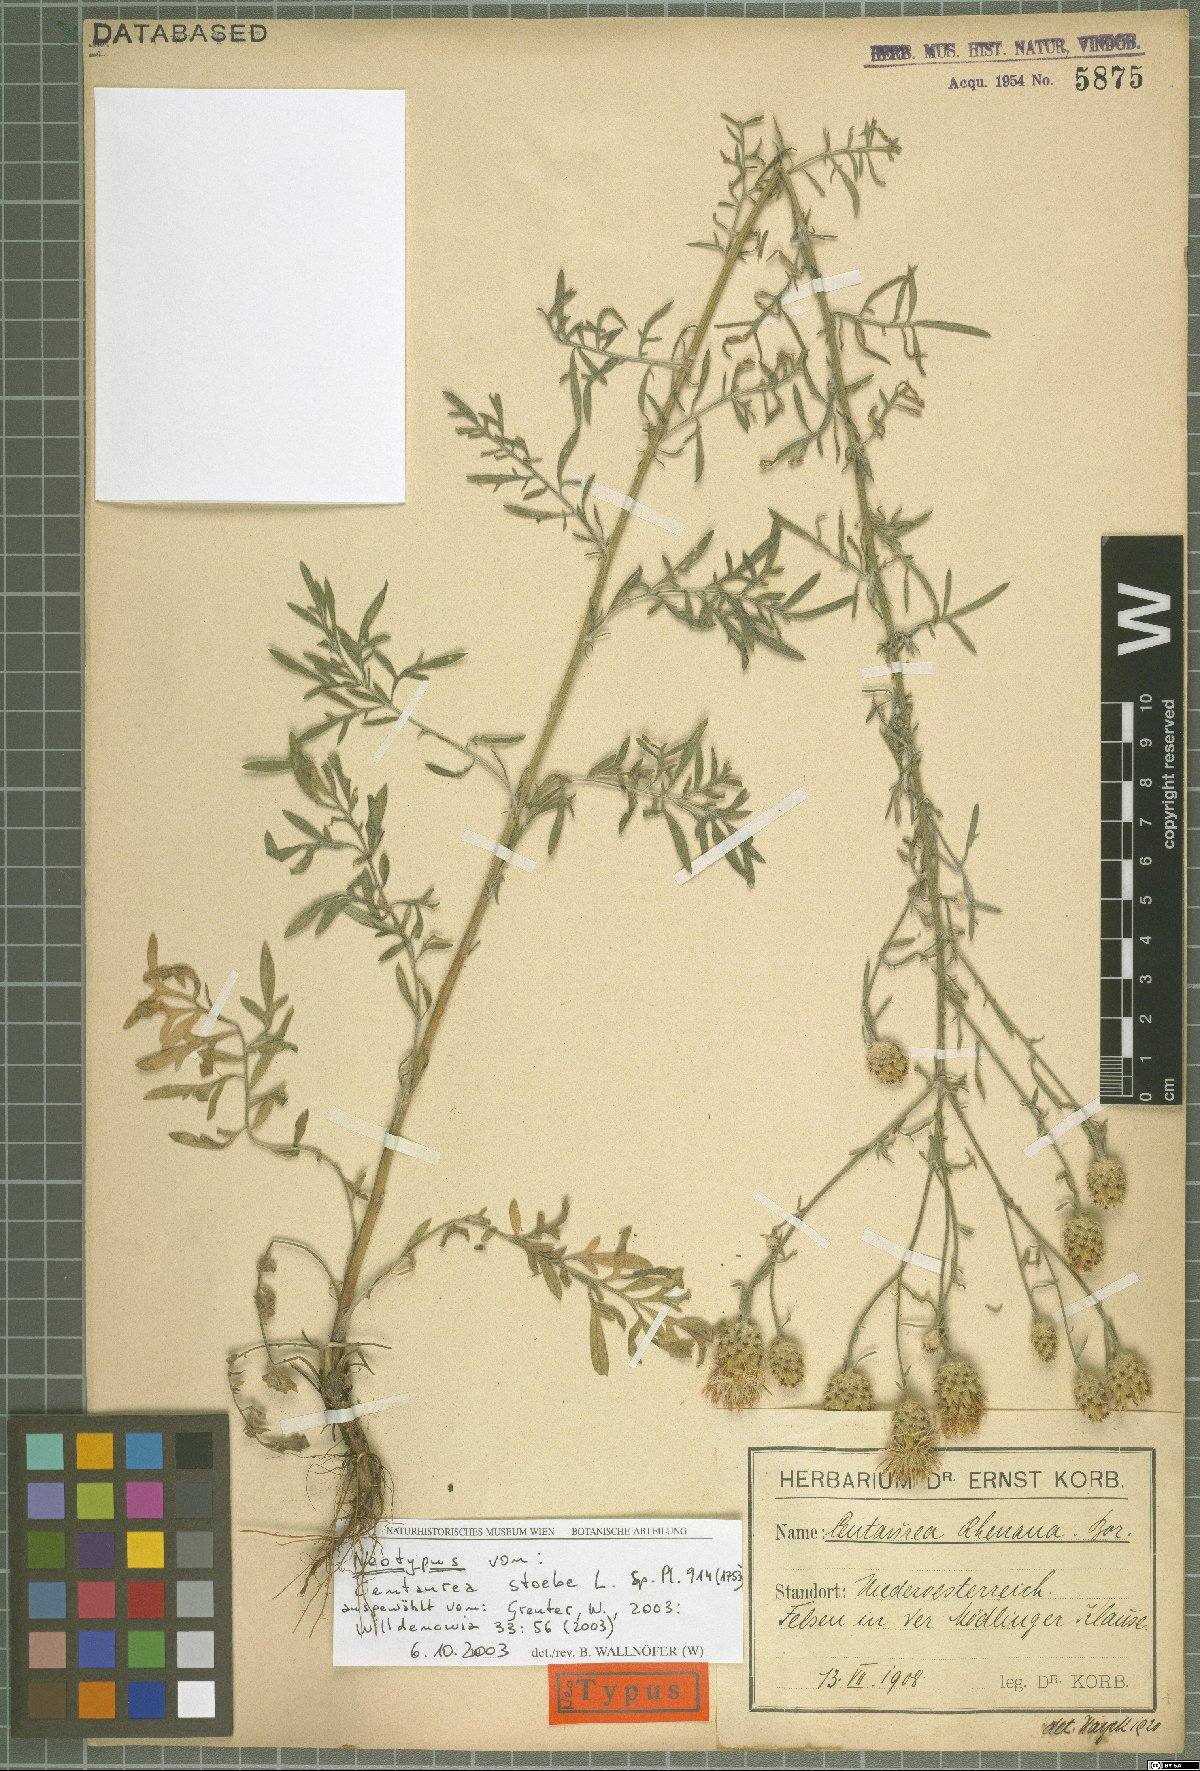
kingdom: Plantae
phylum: Tracheophyta
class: Magnoliopsida
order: Asterales
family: Asteraceae
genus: Centaurea
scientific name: Centaurea stoebe
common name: Spotted knapweed
